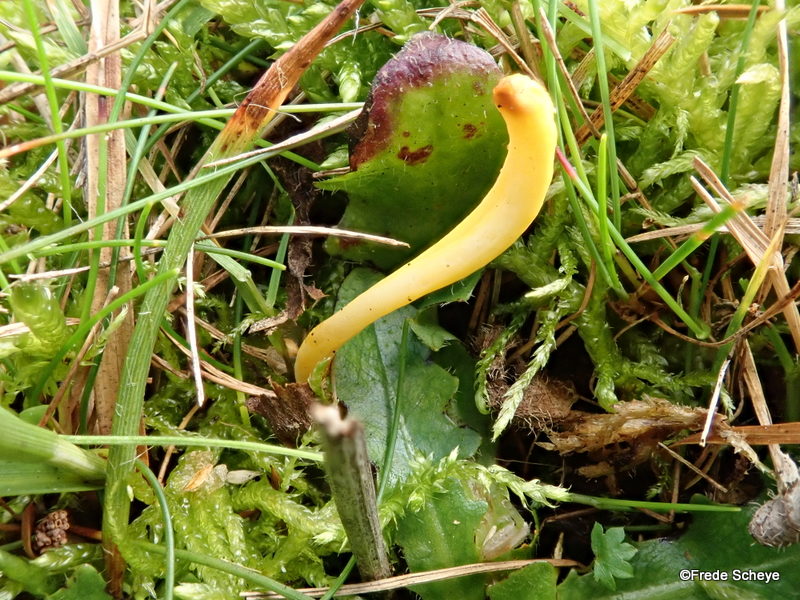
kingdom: Fungi
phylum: Basidiomycota
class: Agaricomycetes
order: Agaricales
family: Clavariaceae
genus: Clavulinopsis
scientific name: Clavulinopsis helvola
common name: orangegul køllesvamp
